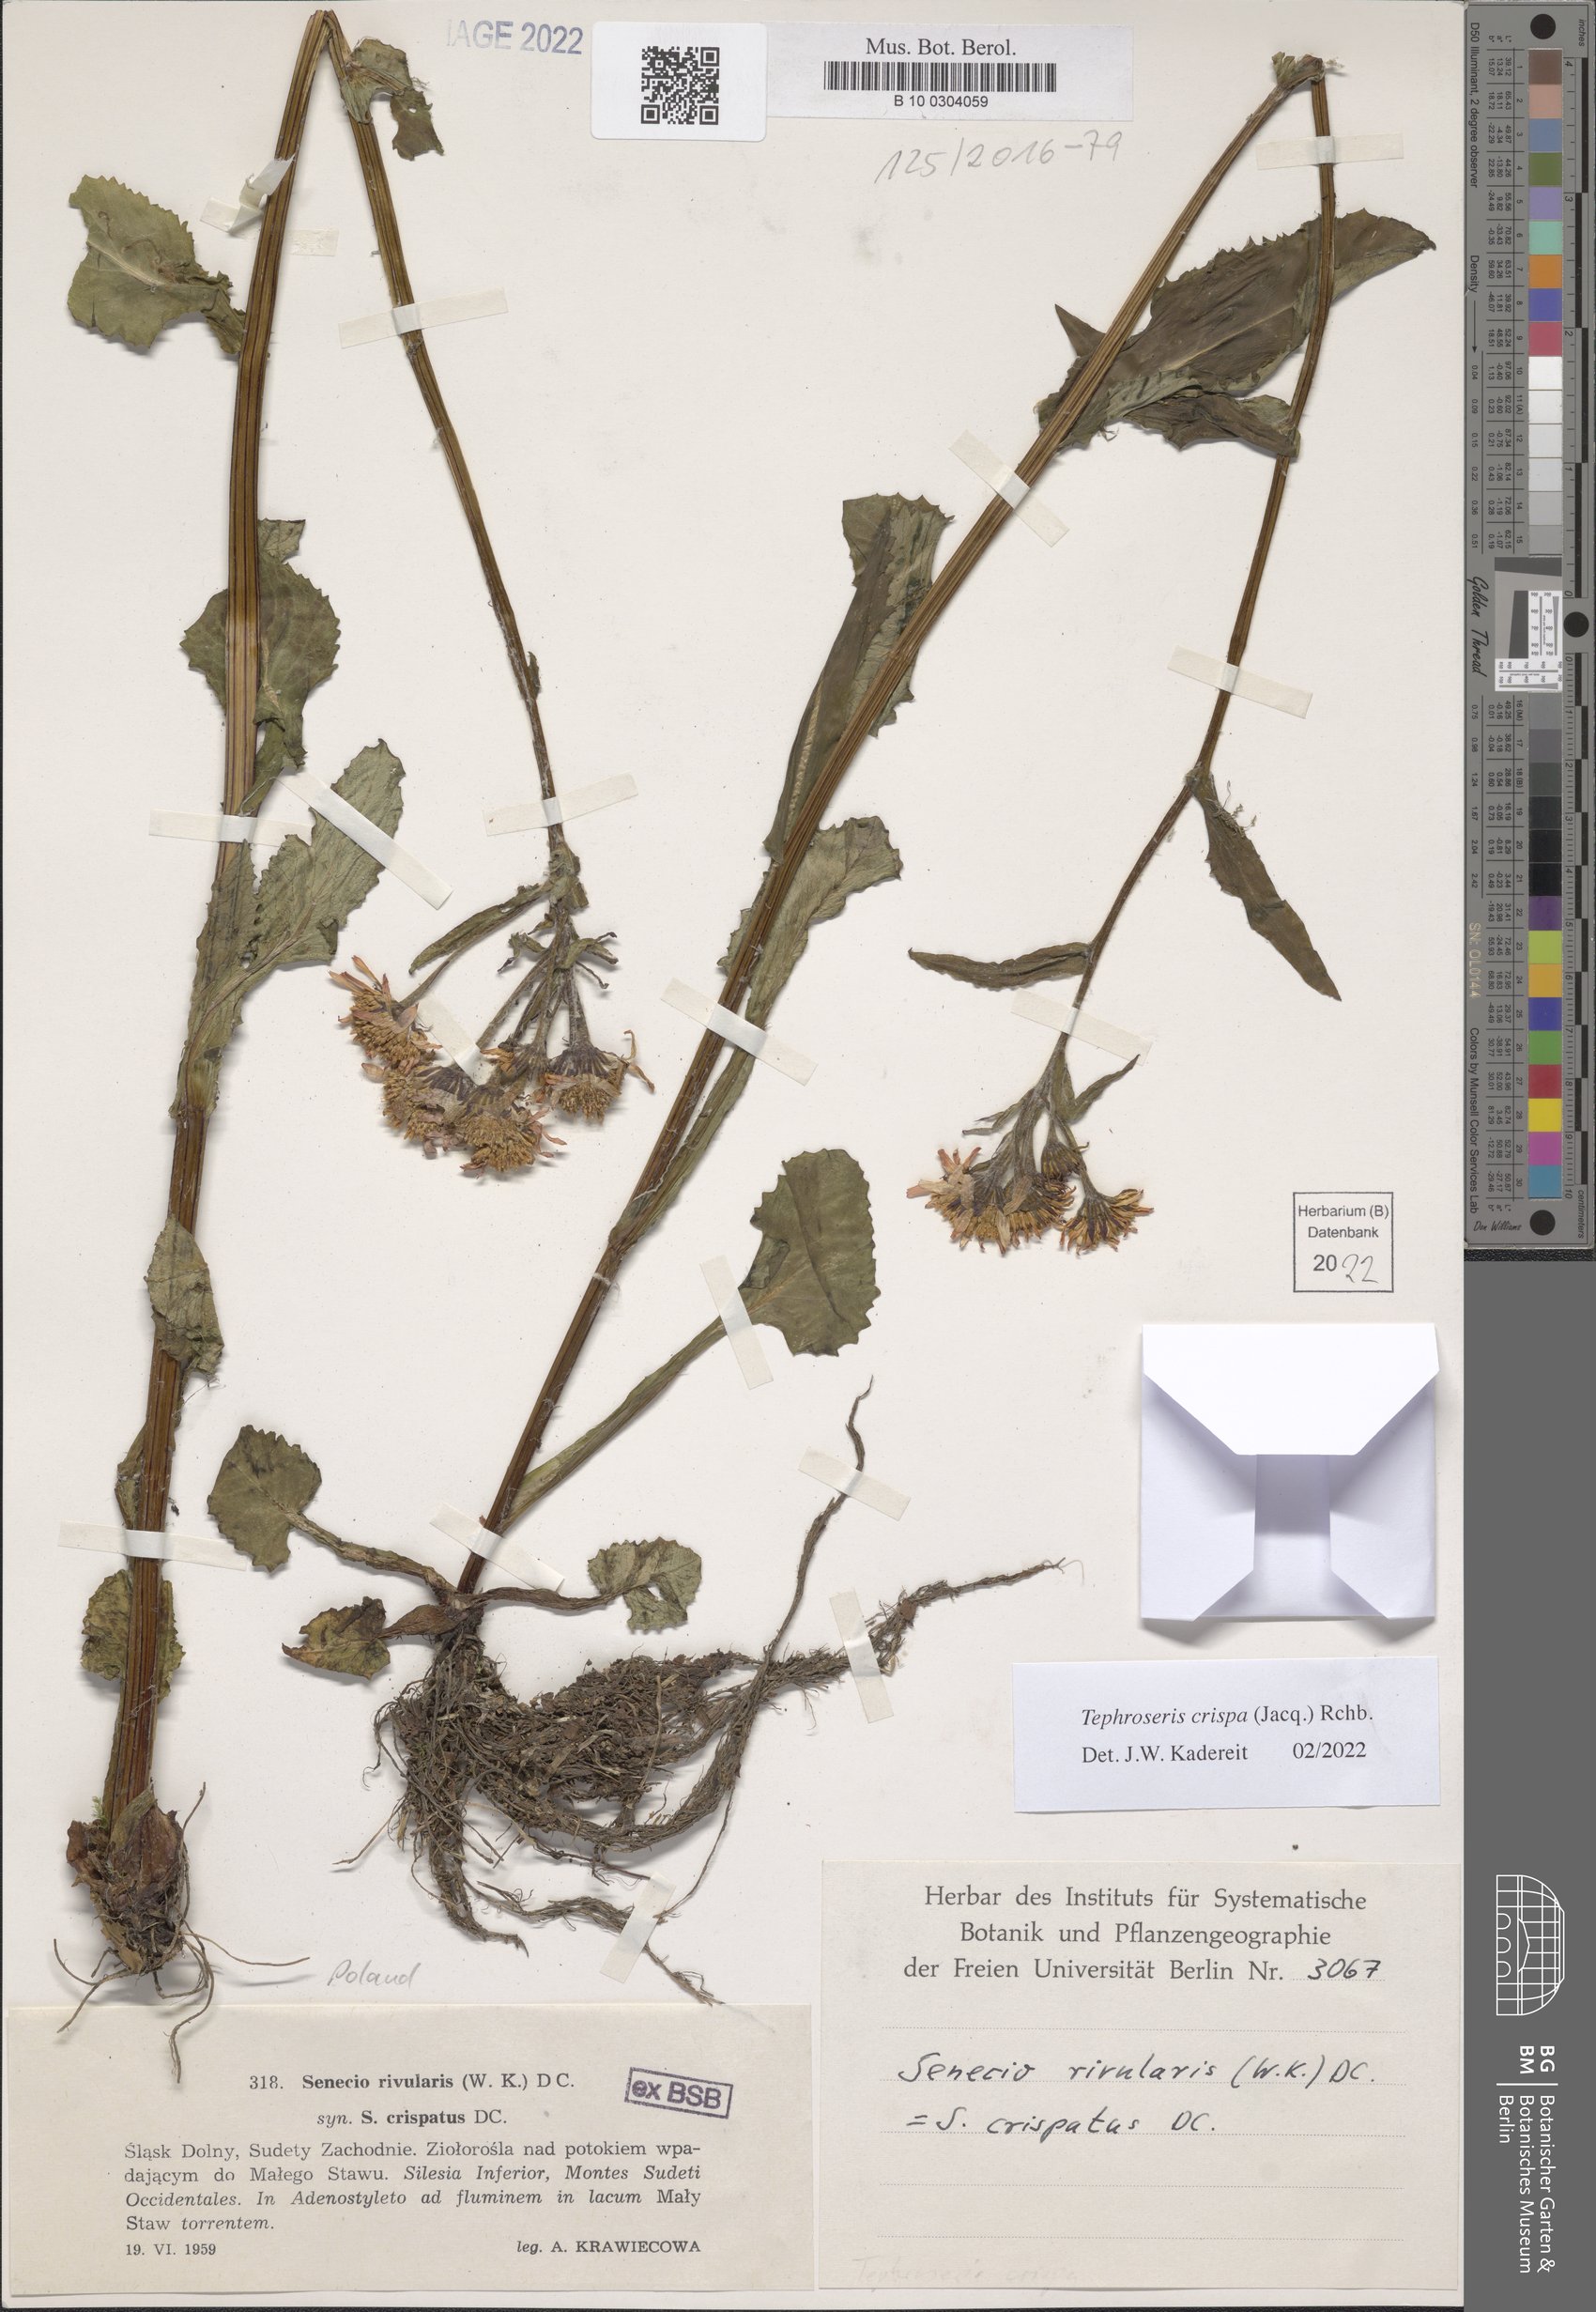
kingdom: Plantae
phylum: Tracheophyta
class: Magnoliopsida
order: Asterales
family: Asteraceae
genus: Tephroseris
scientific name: Tephroseris crispa
